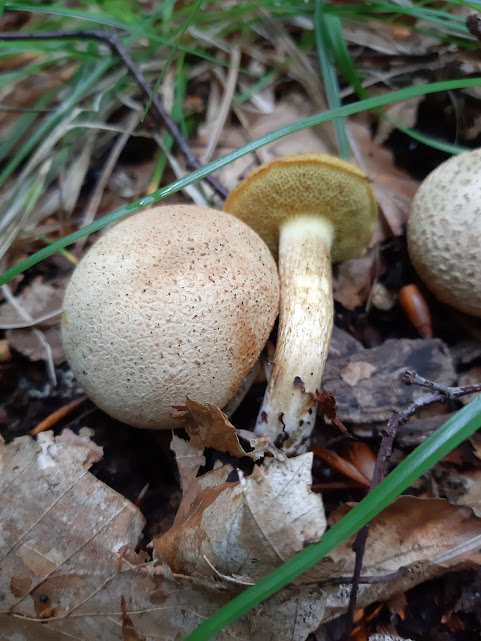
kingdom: Fungi
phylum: Basidiomycota
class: Agaricomycetes
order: Boletales
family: Boletaceae
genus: Pseudoboletus
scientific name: Pseudoboletus parasiticus
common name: snyltende rørhat
